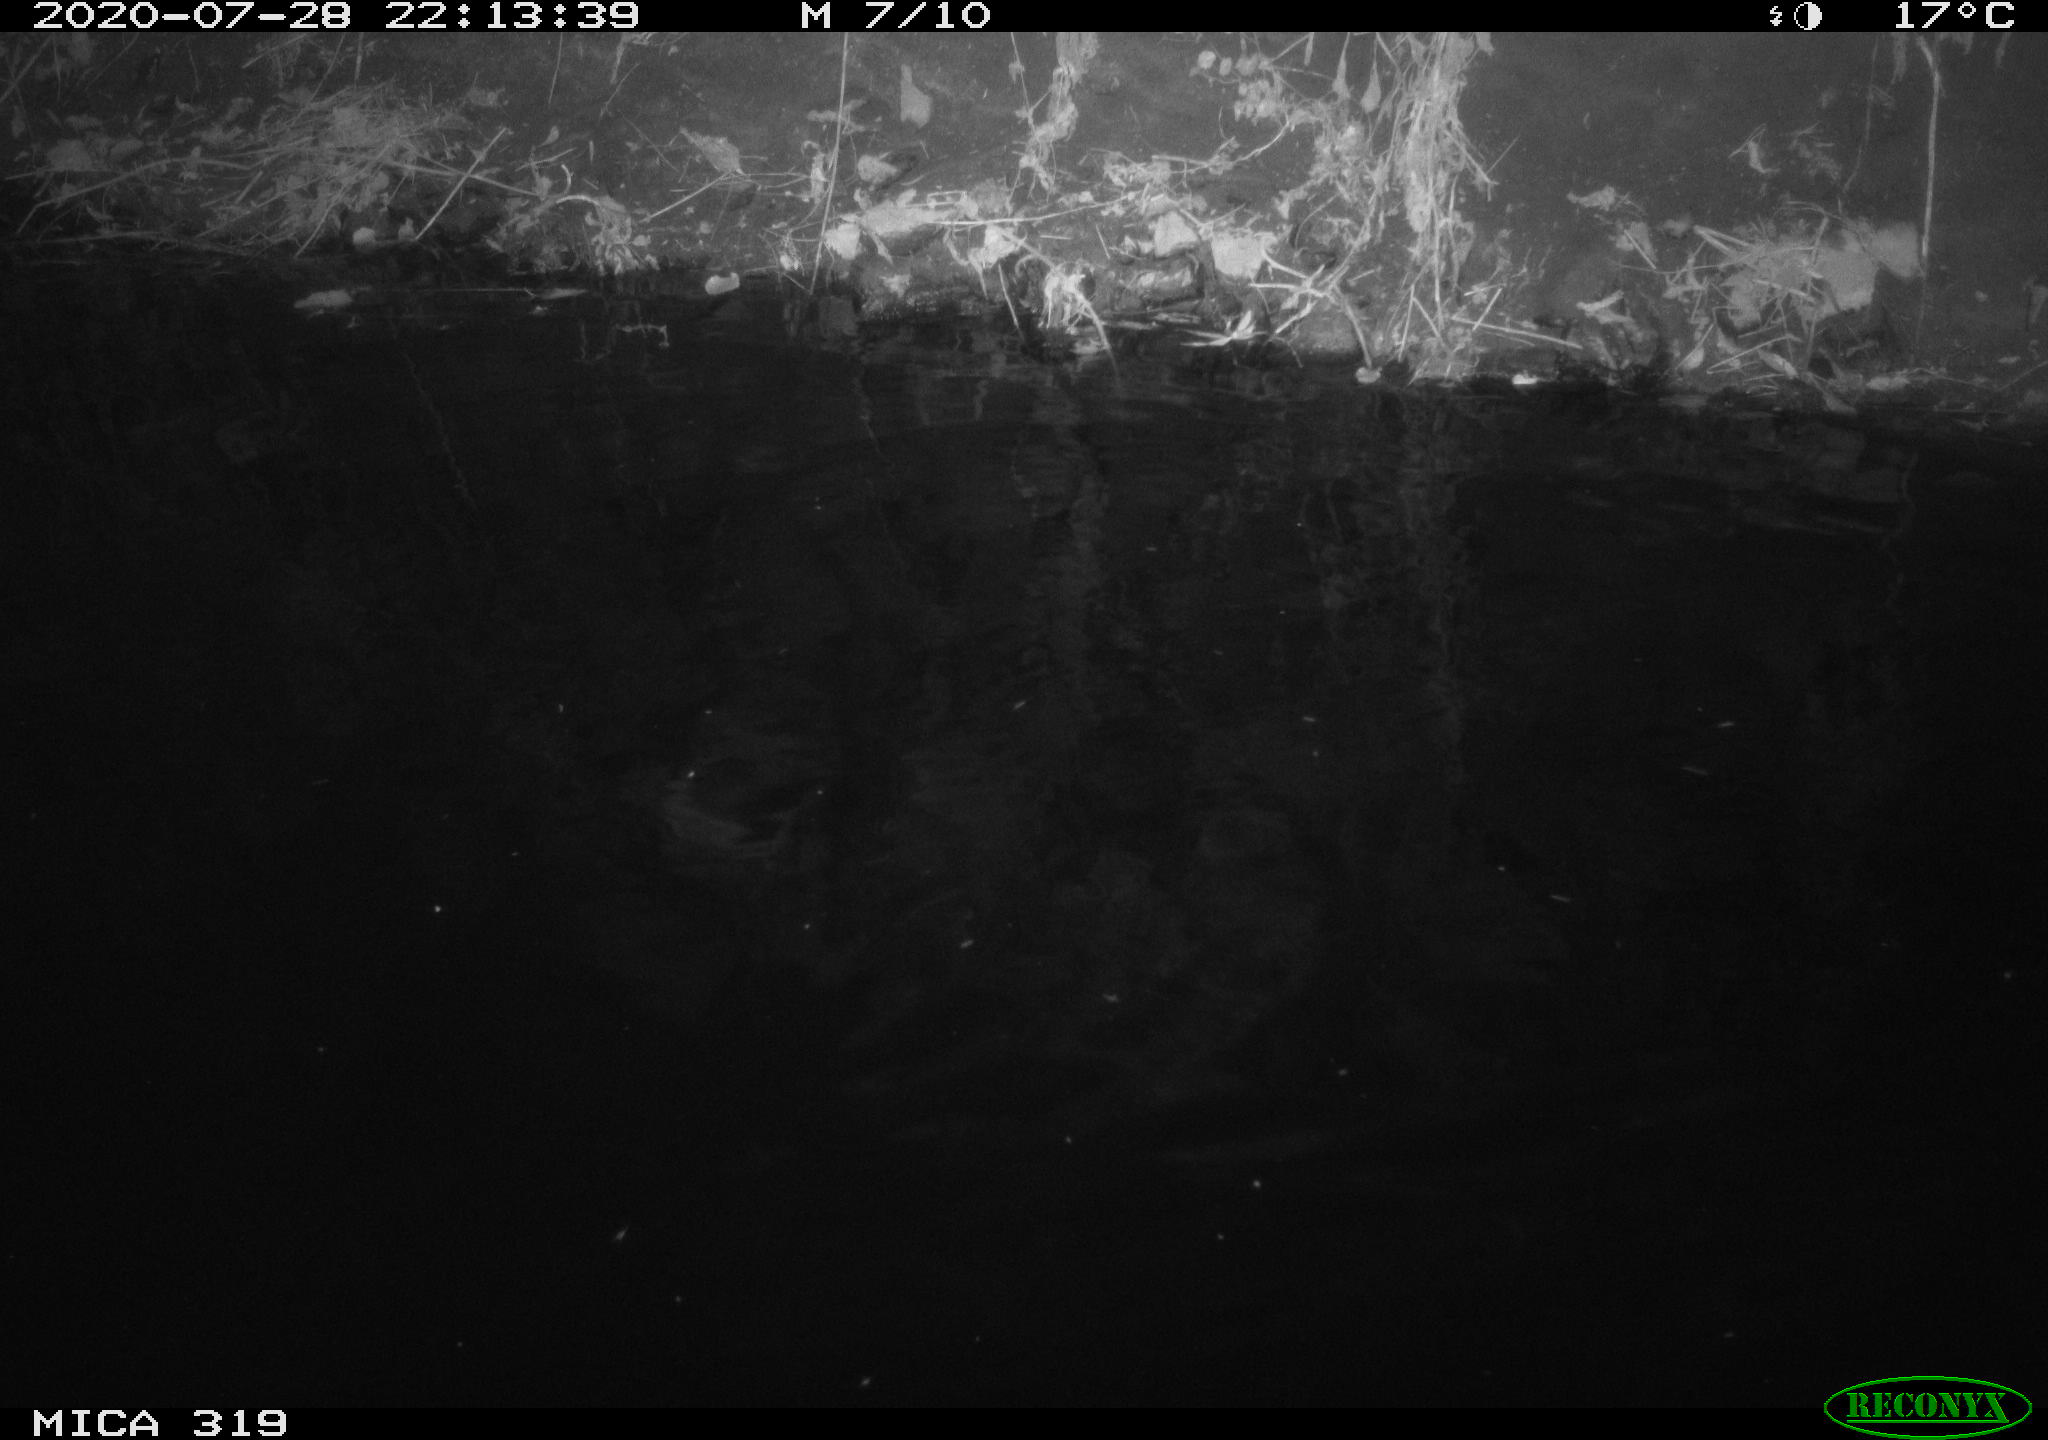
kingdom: Animalia
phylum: Chordata
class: Aves
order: Anseriformes
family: Anatidae
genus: Anas
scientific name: Anas platyrhynchos
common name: Mallard
